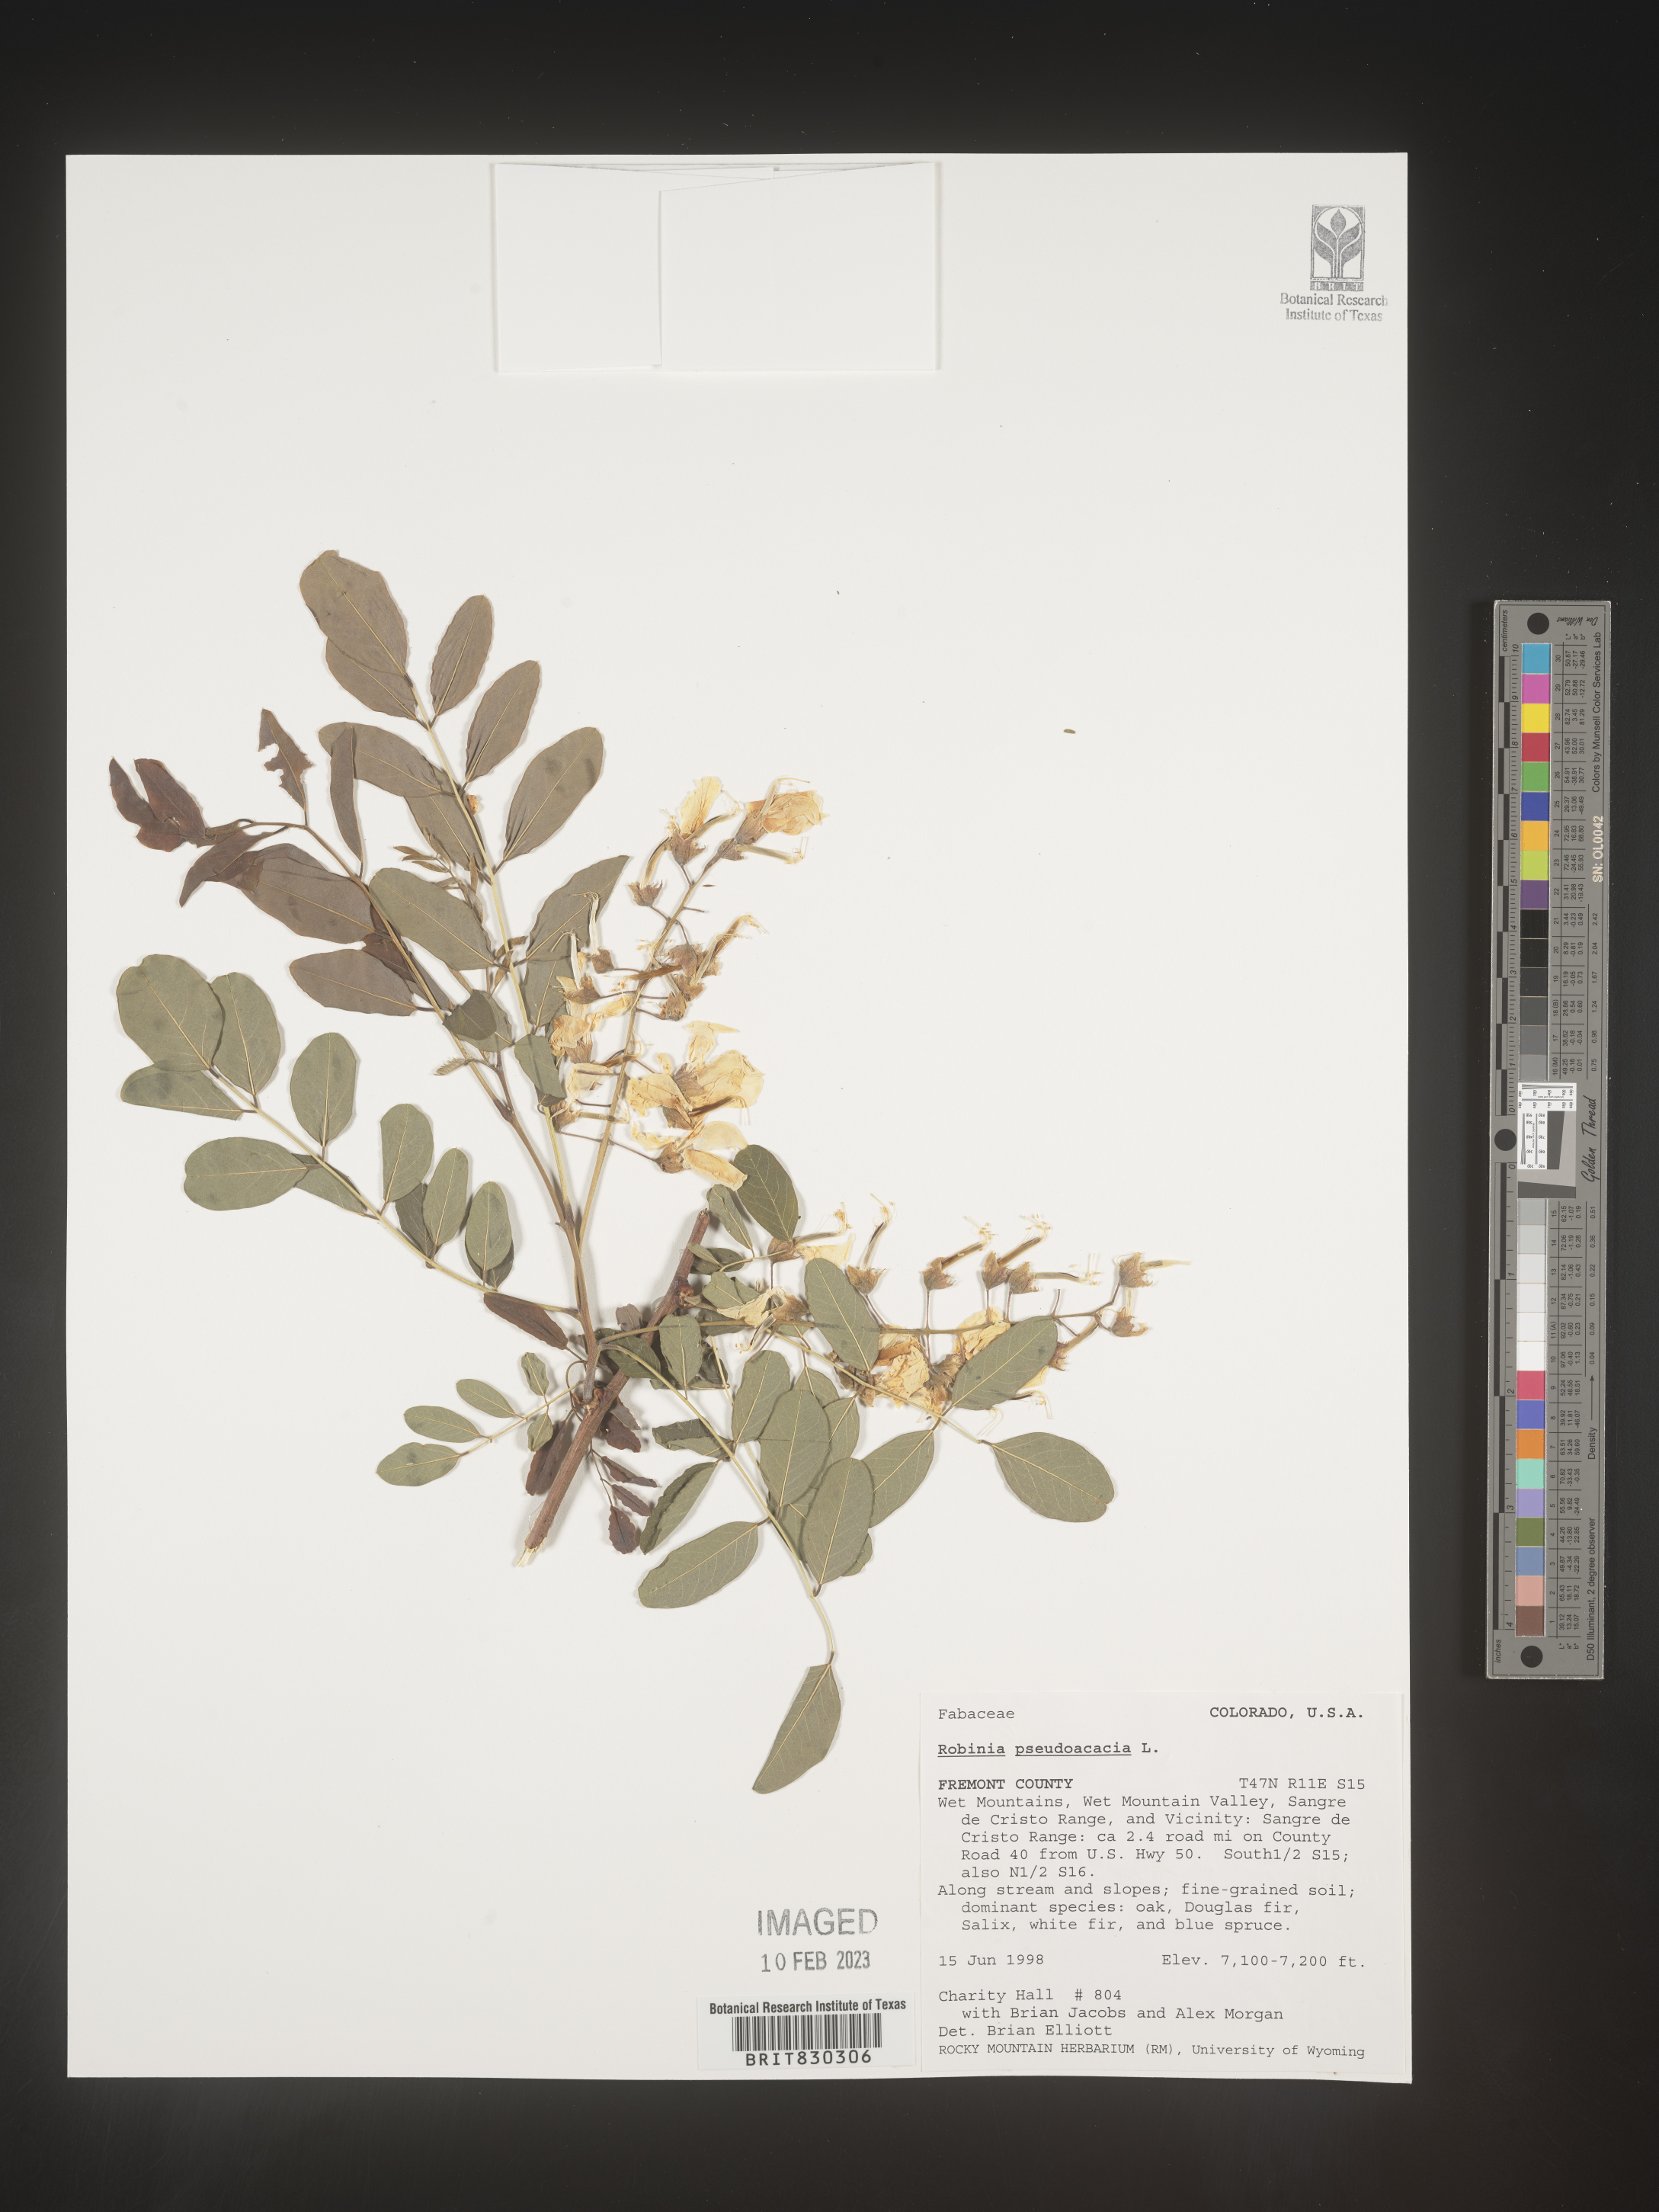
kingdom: Plantae
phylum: Tracheophyta
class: Magnoliopsida
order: Fabales
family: Fabaceae
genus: Robinia
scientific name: Robinia pseudoacacia
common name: Black locust
